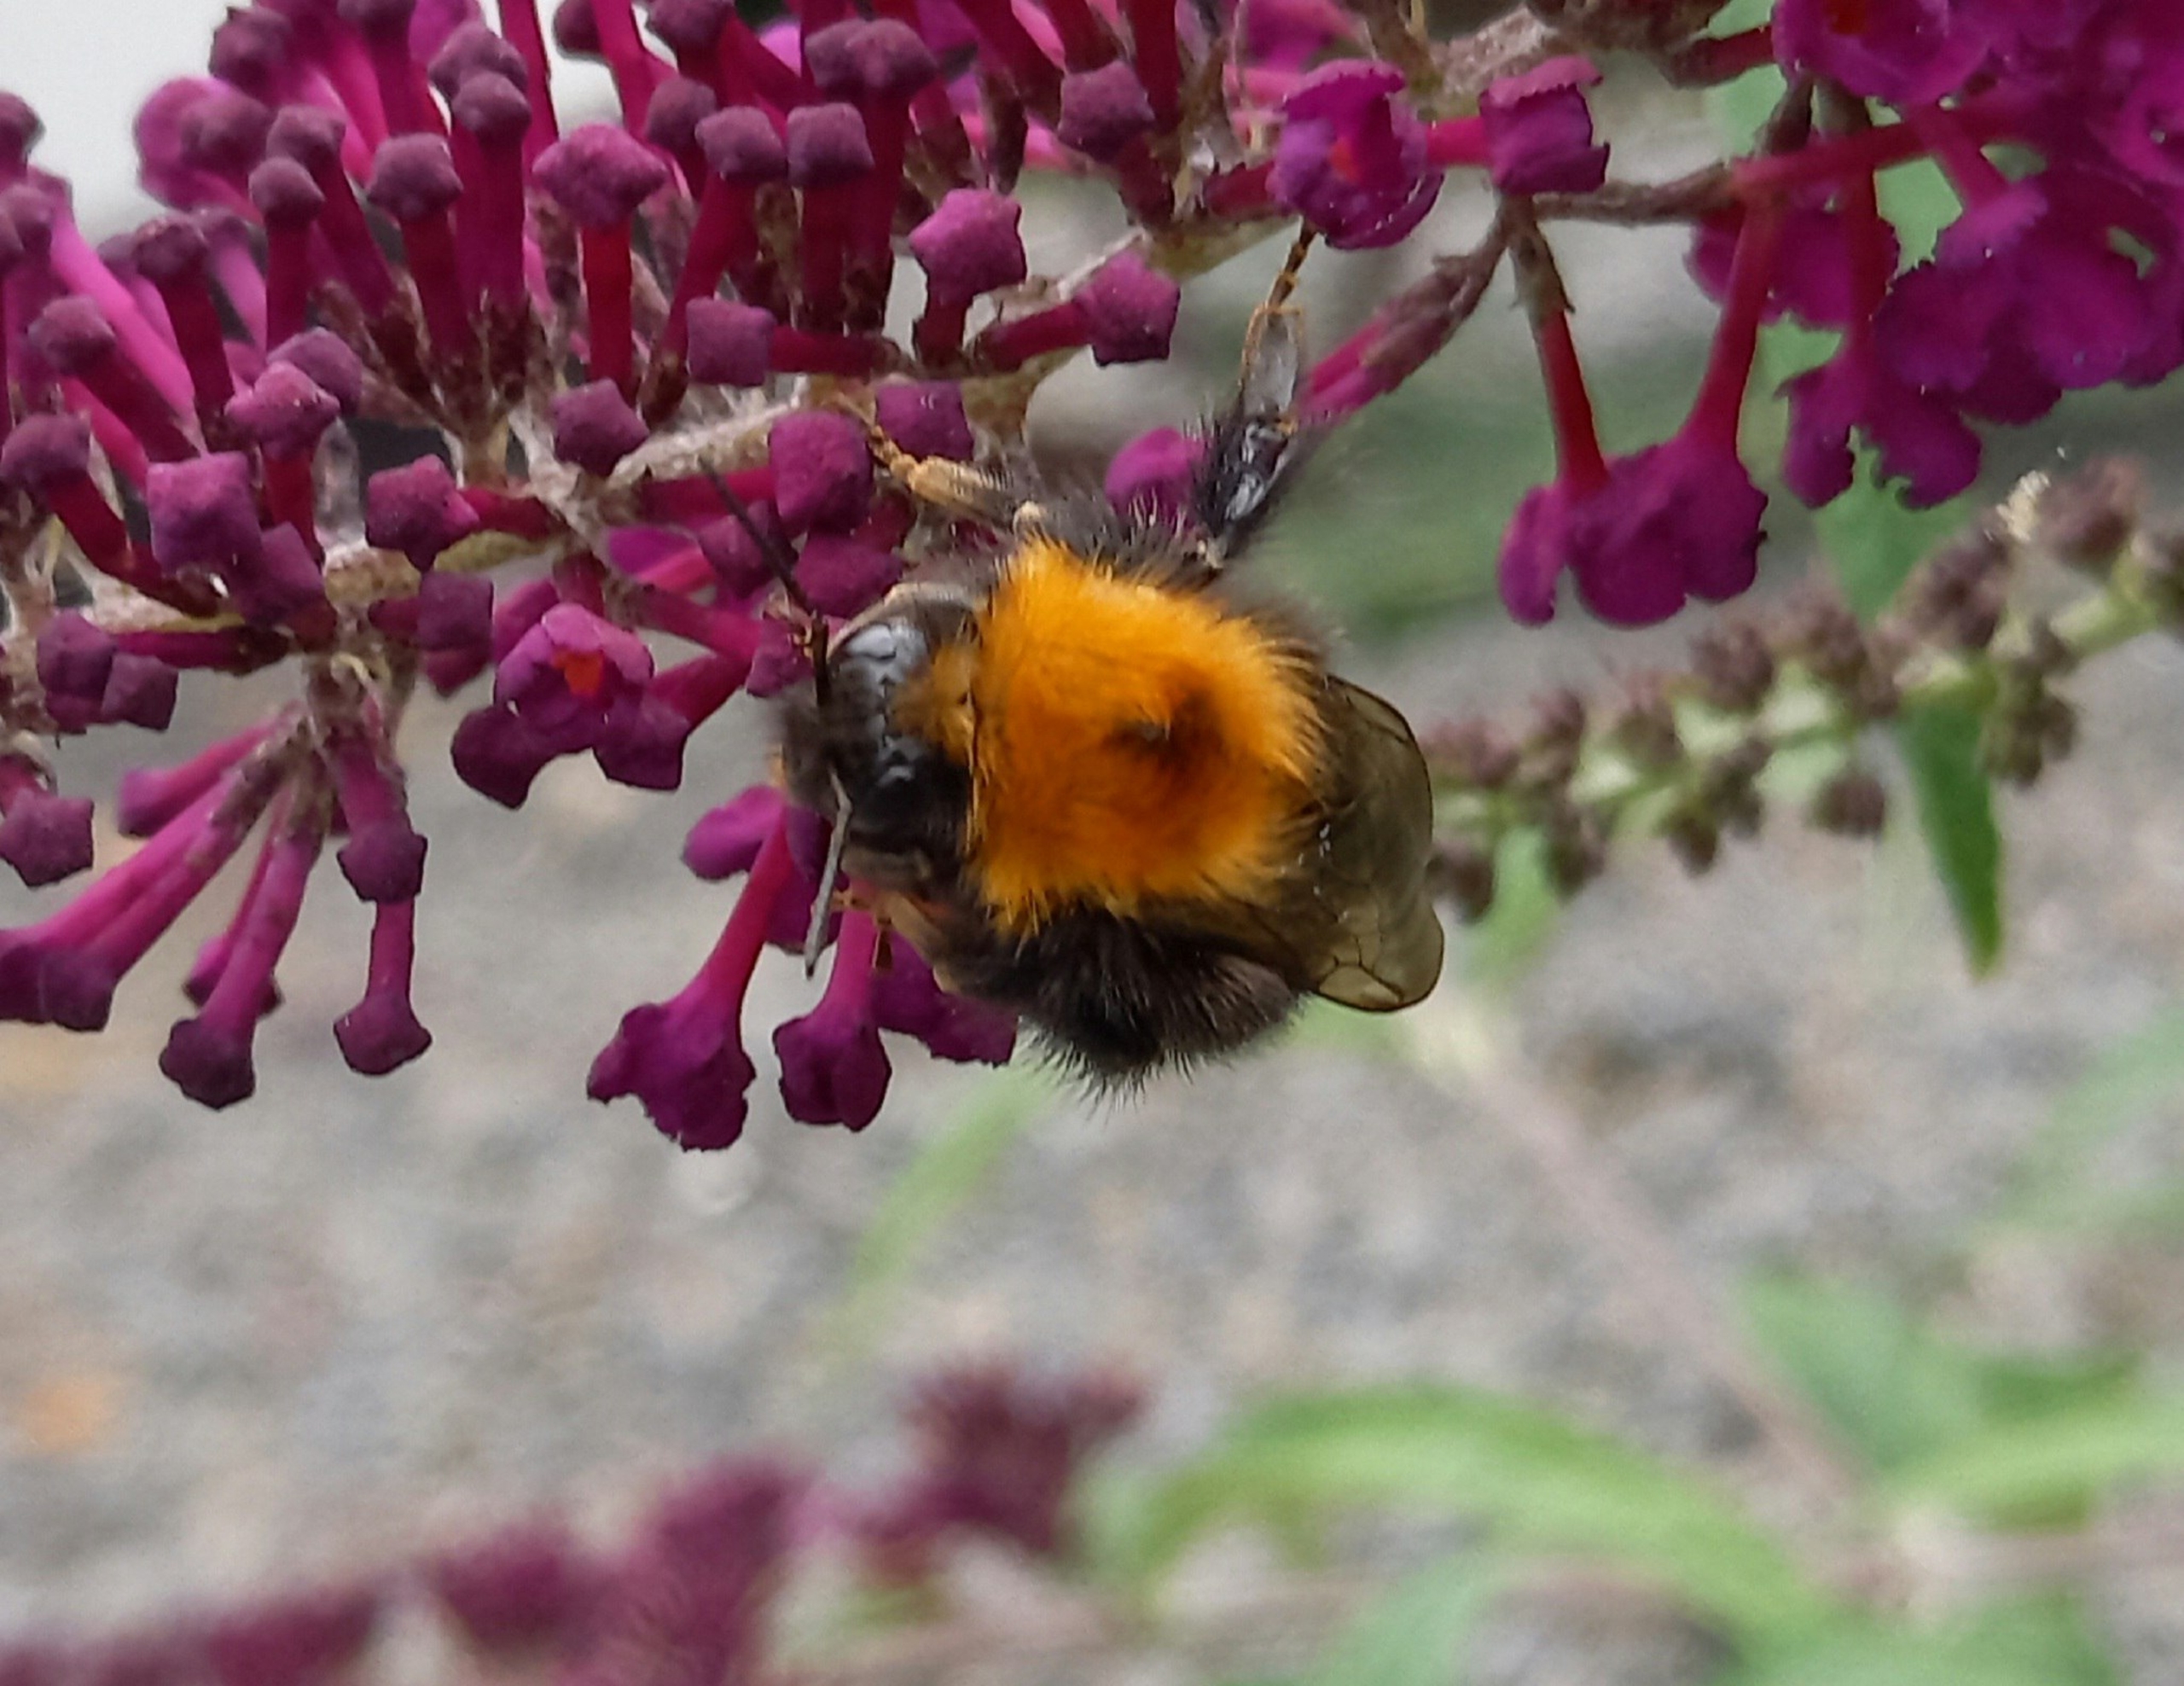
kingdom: Animalia
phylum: Arthropoda
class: Insecta
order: Hymenoptera
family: Apidae
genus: Bombus
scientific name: Bombus hypnorum
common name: Hushumle
